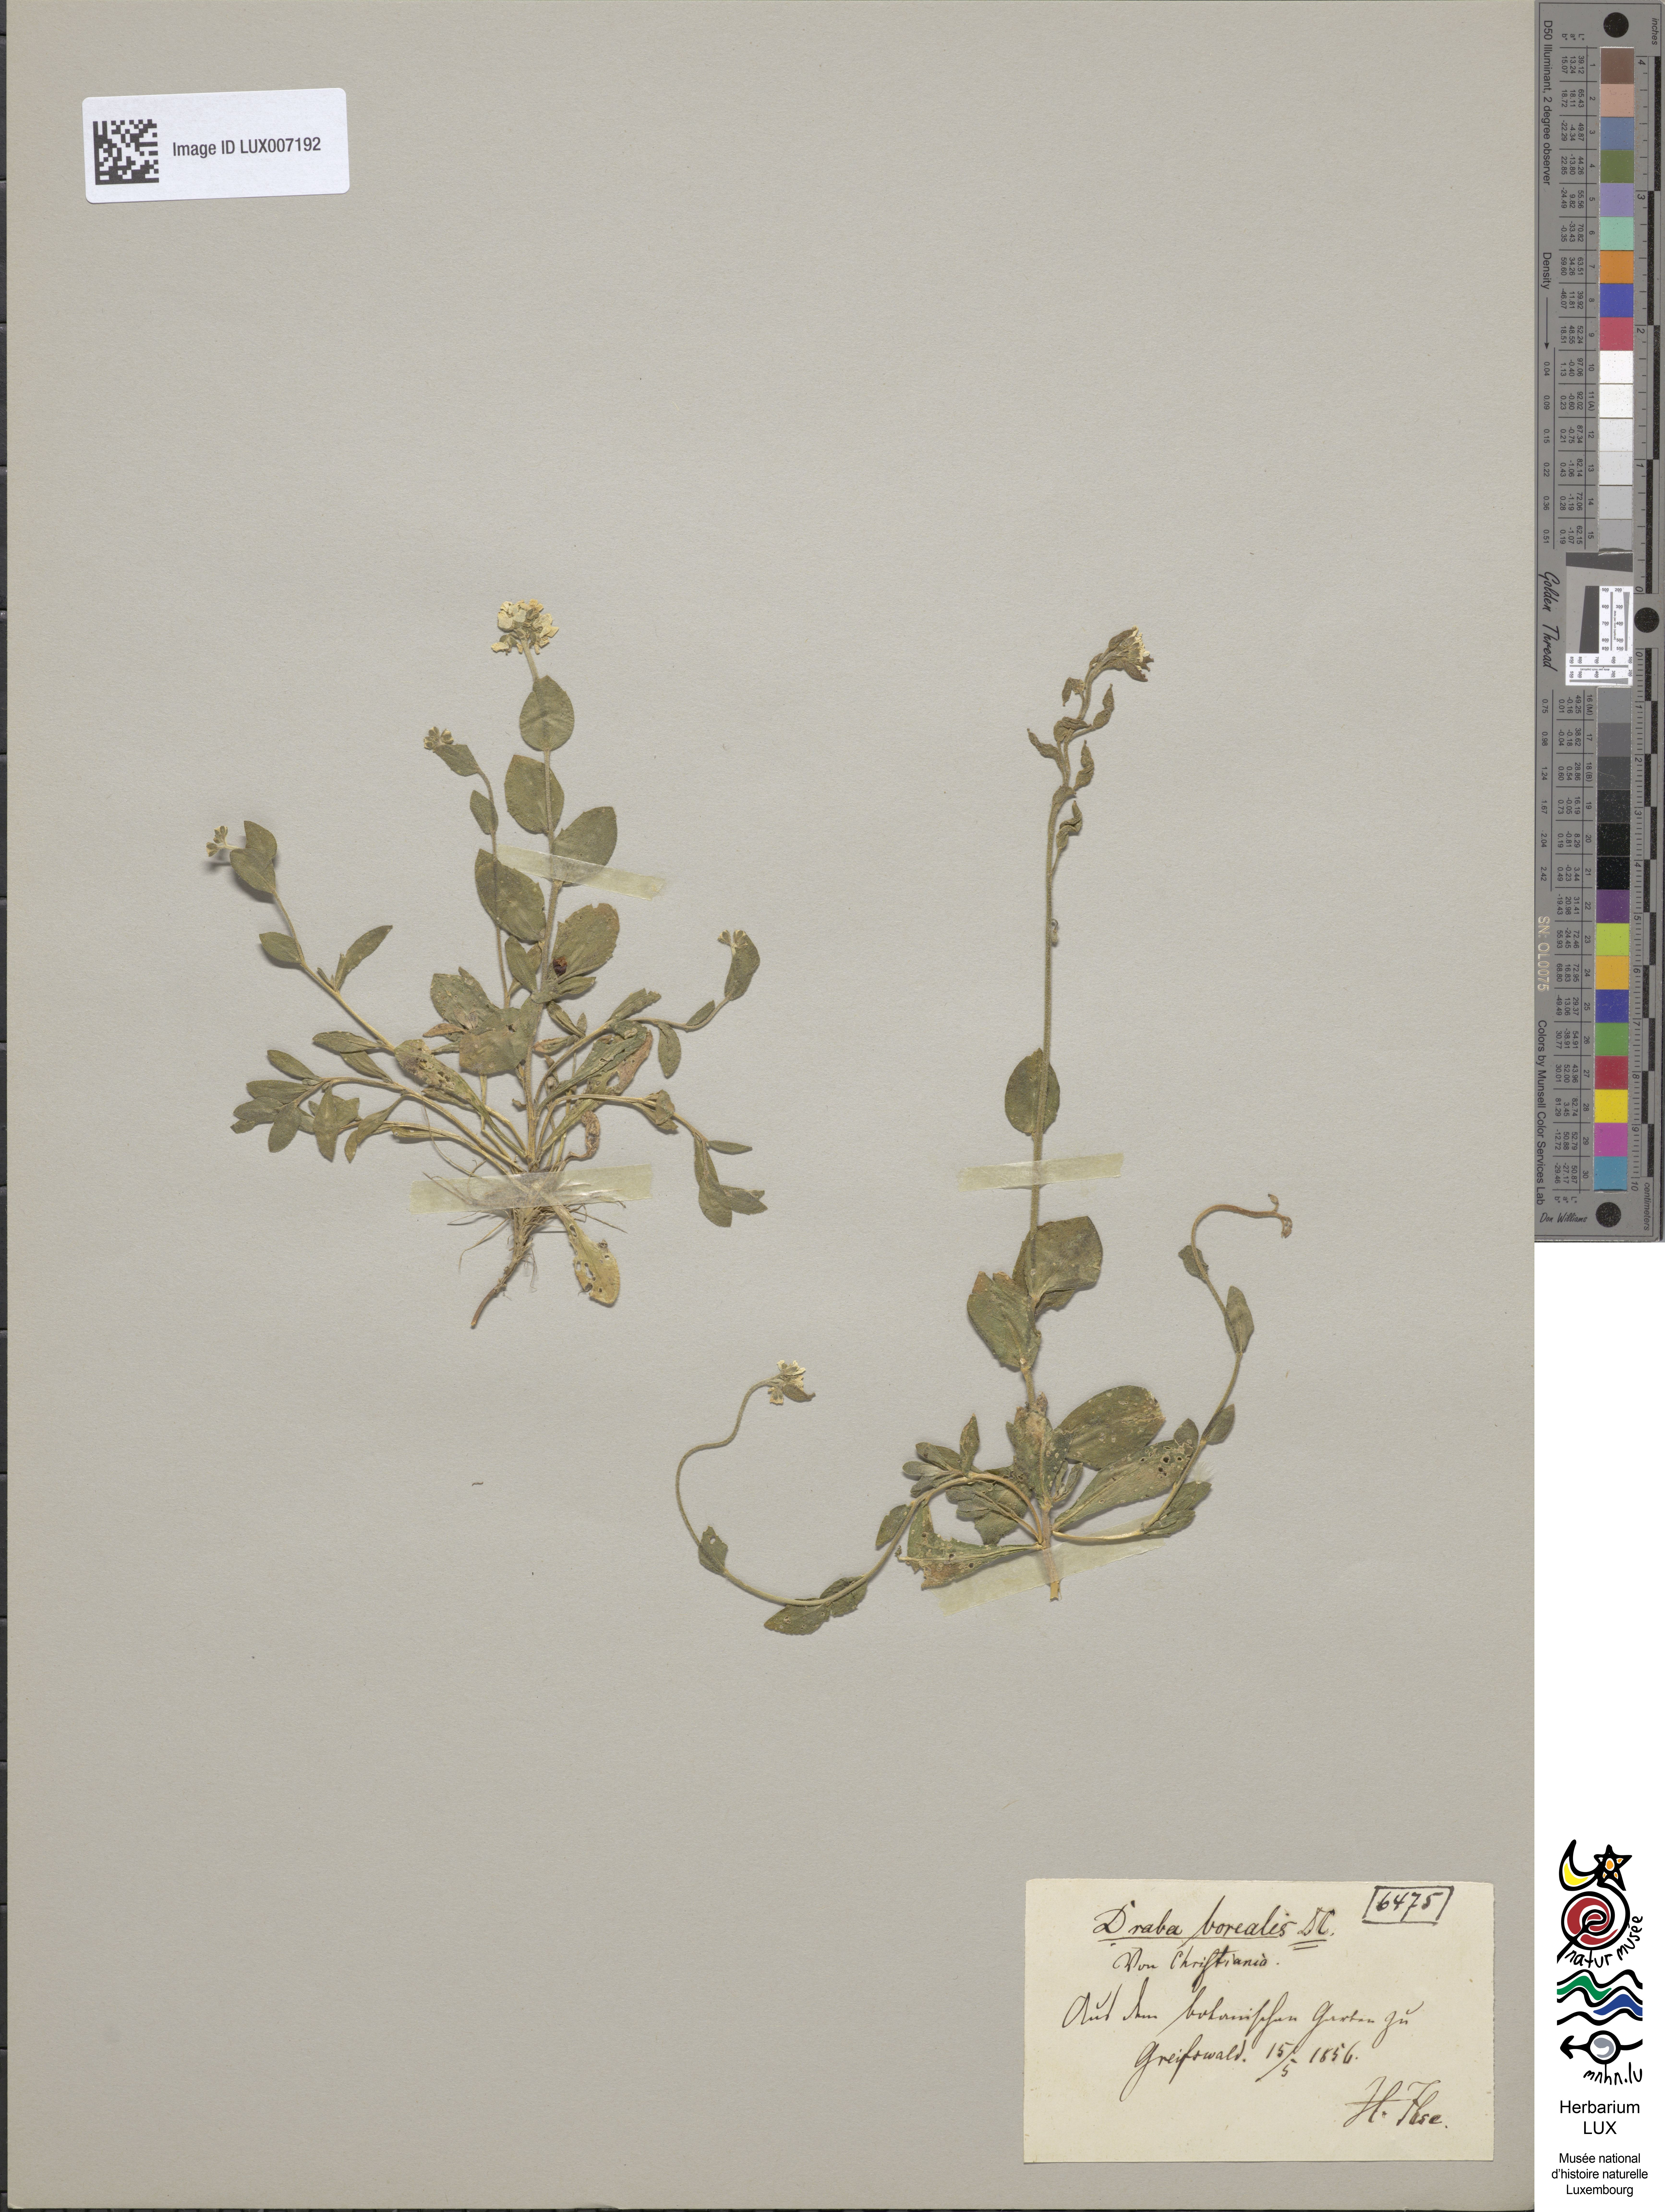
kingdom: Plantae
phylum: Tracheophyta
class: Magnoliopsida
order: Brassicales
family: Brassicaceae
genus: Draba
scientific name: Draba borealis
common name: Boreal draba
